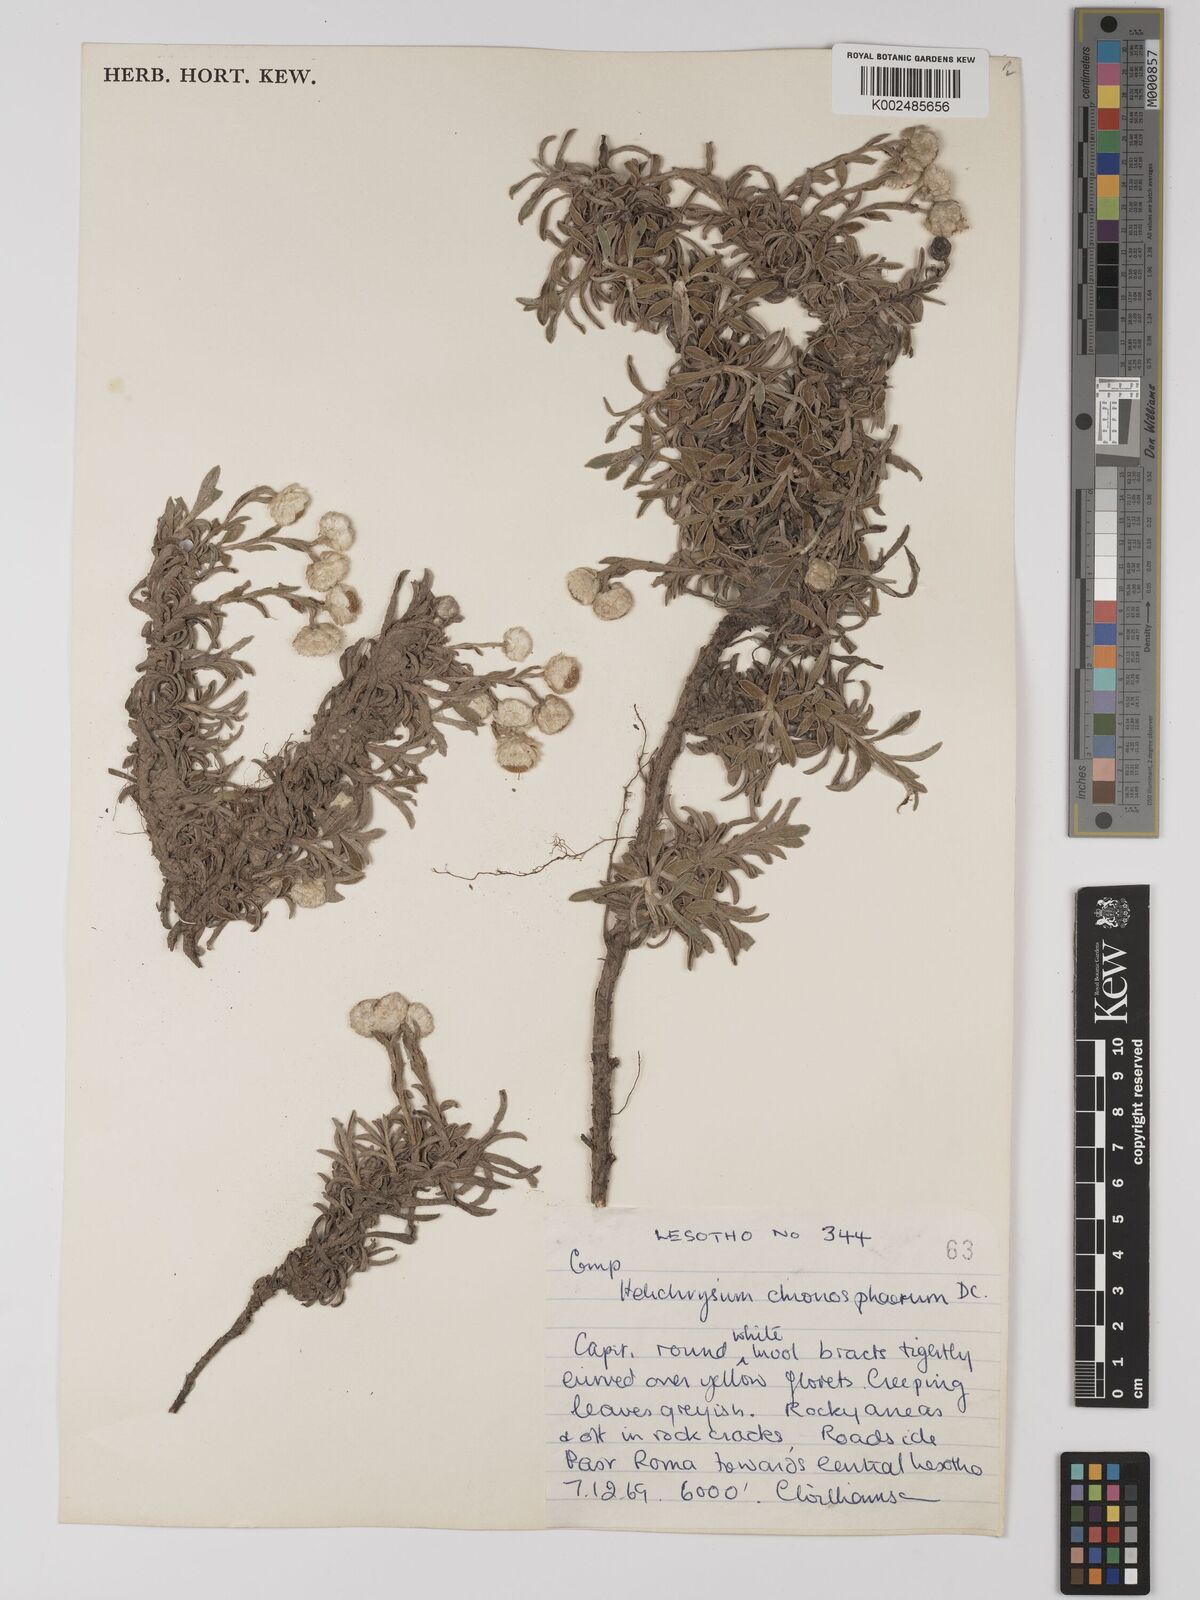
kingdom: Plantae
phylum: Tracheophyta
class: Magnoliopsida
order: Asterales
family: Asteraceae
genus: Helichrysum
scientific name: Helichrysum chionosphaerum
